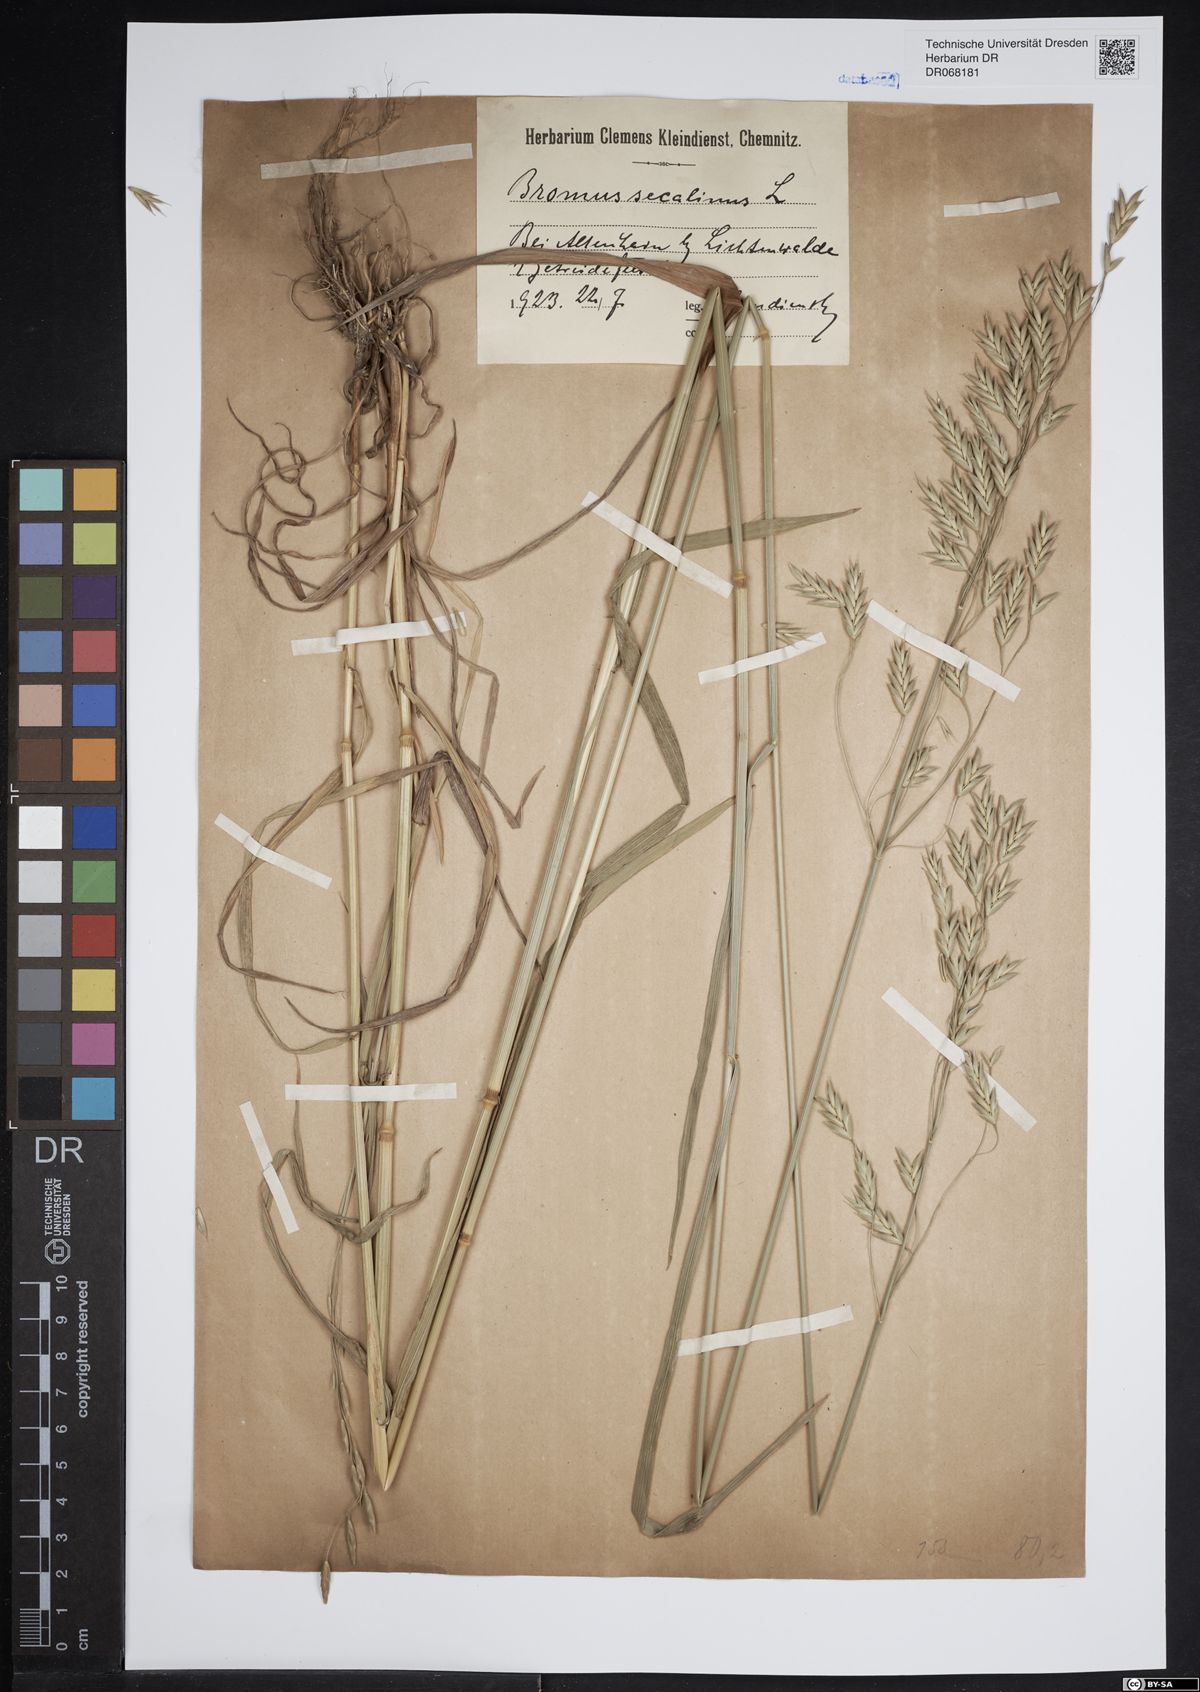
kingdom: Plantae
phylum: Tracheophyta
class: Liliopsida
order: Poales
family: Poaceae
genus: Bromus
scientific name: Bromus secalinus
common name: Rye brome
